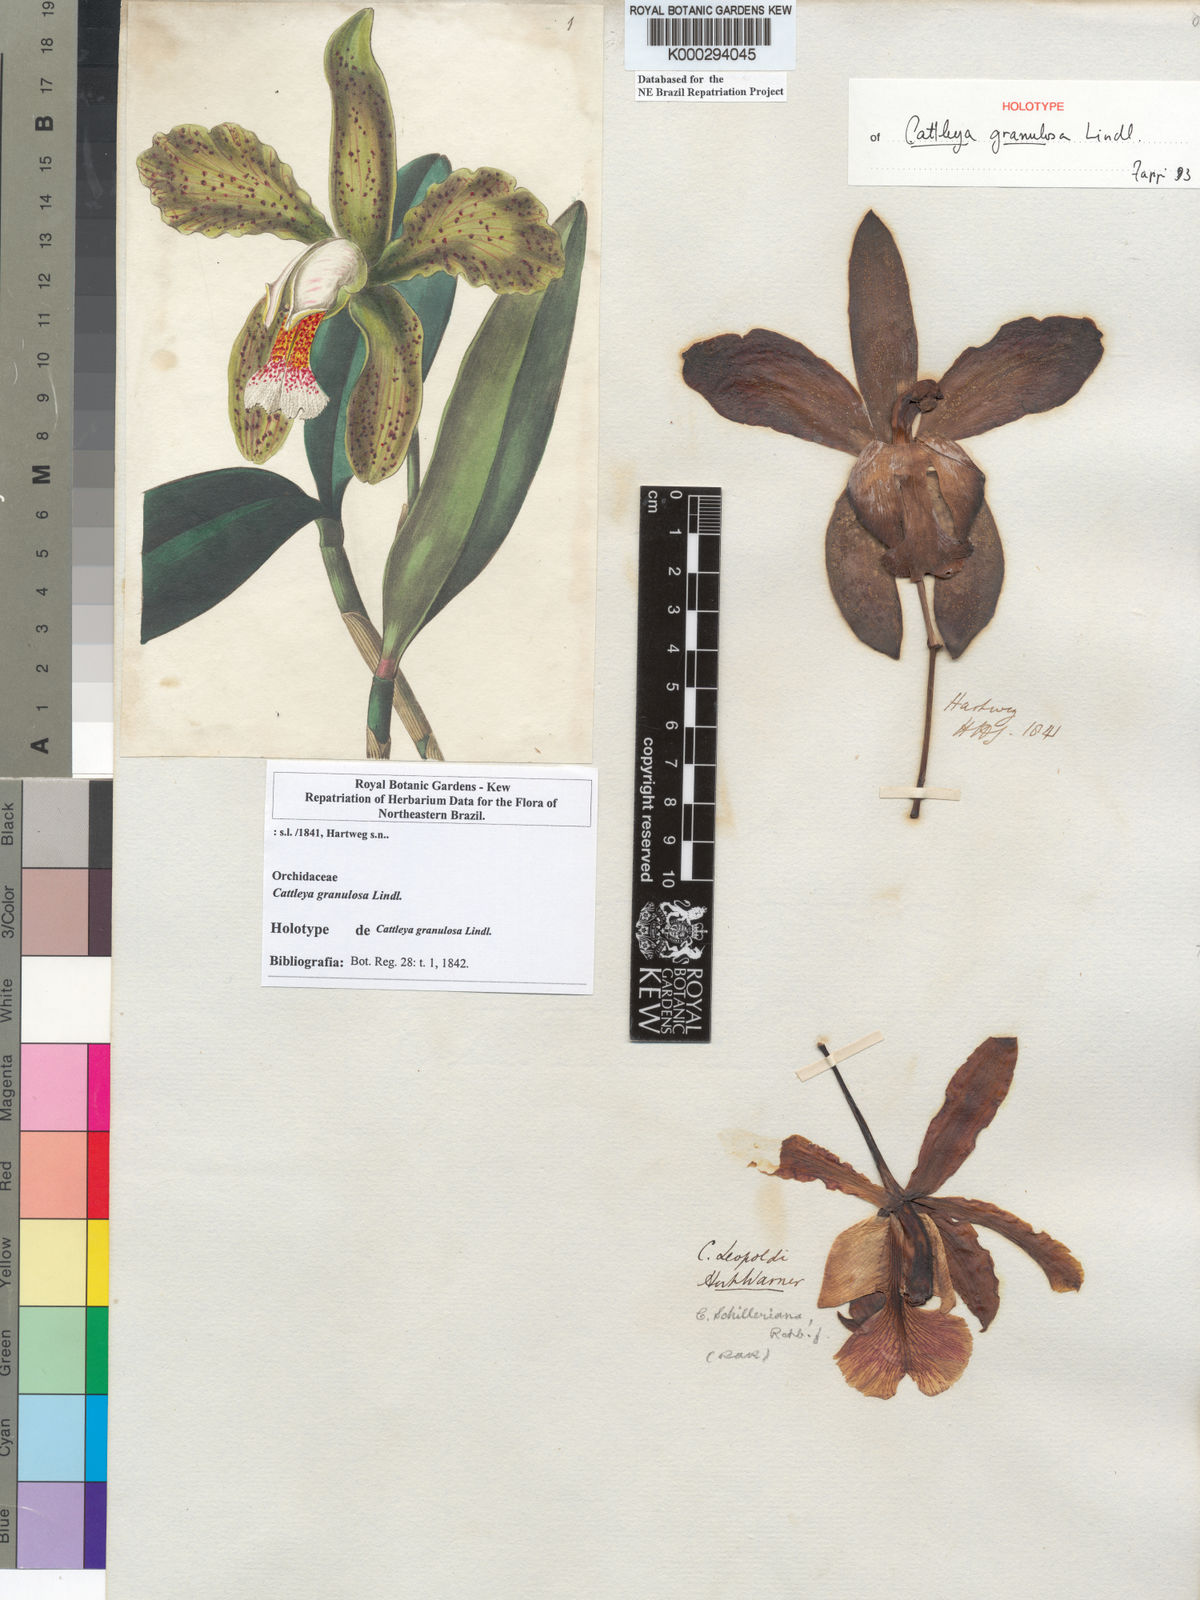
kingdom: Plantae
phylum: Tracheophyta
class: Liliopsida
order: Asparagales
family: Orchidaceae
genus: Cattleya
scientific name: Cattleya granulosa
